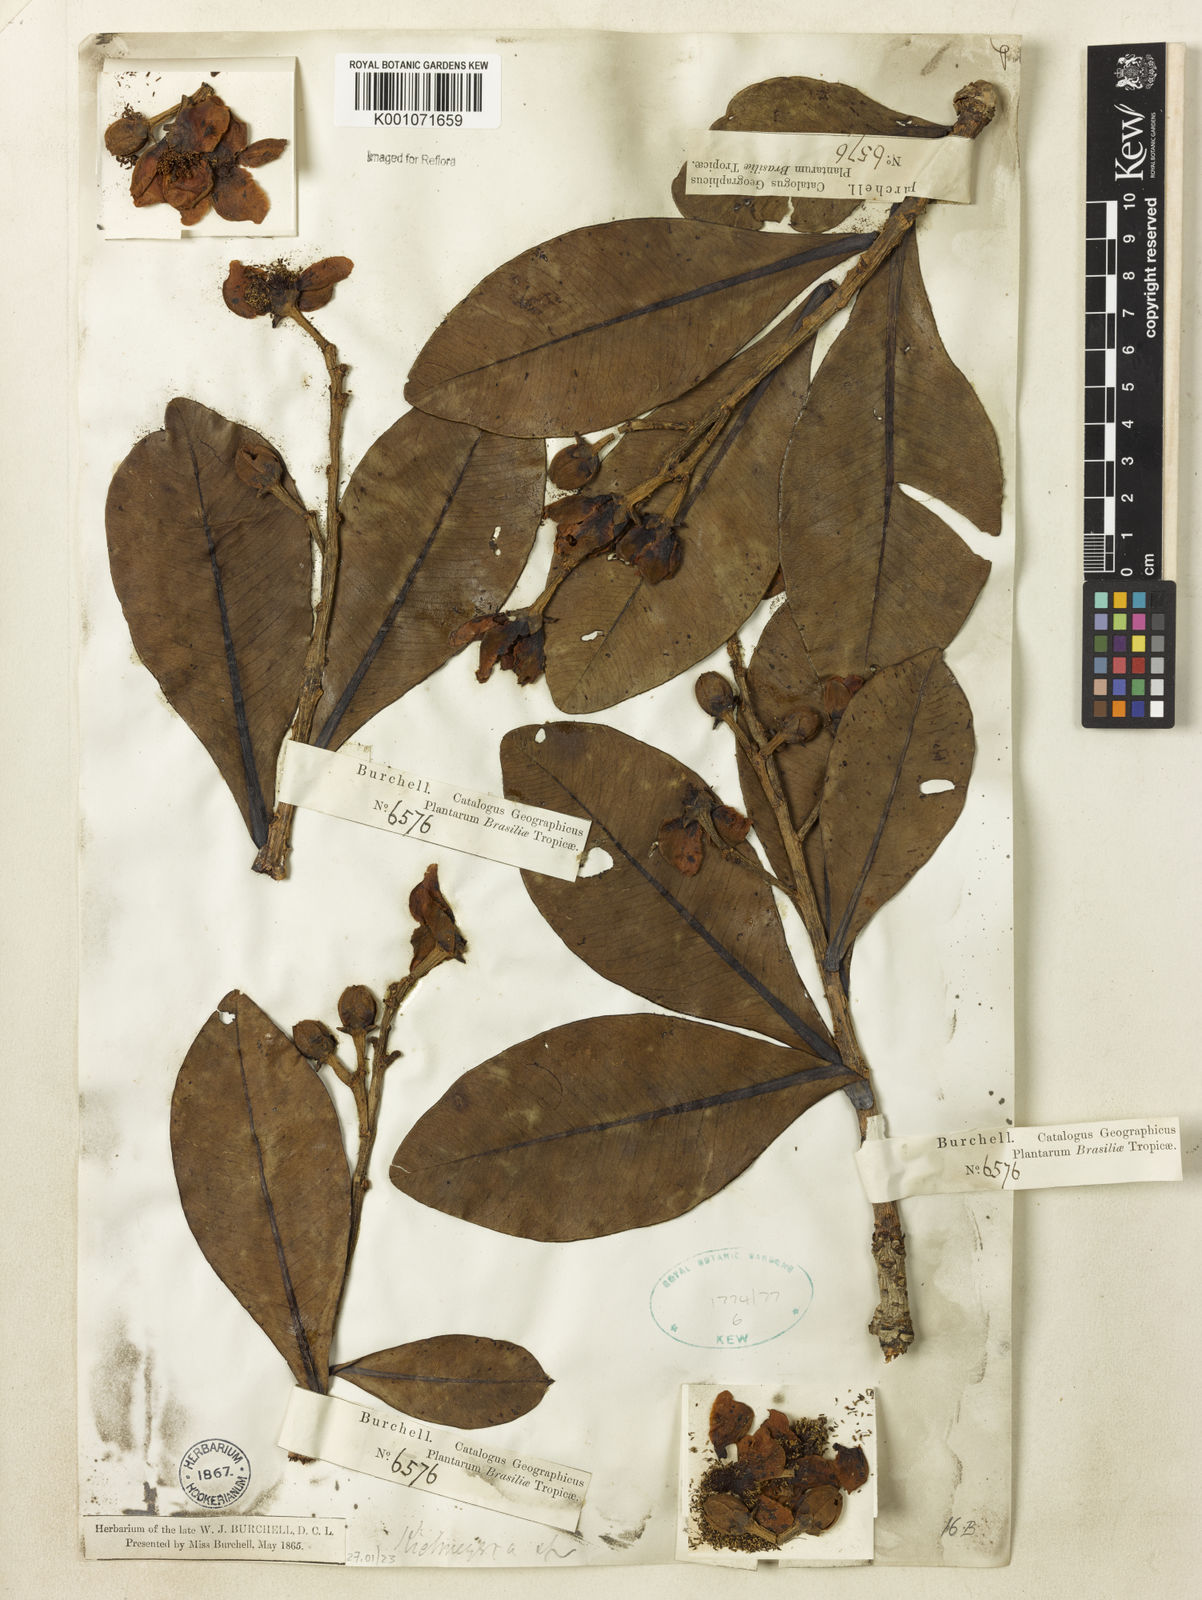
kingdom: Plantae
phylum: Tracheophyta
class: Magnoliopsida
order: Malpighiales
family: Calophyllaceae
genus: Kielmeyera
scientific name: Kielmeyera
